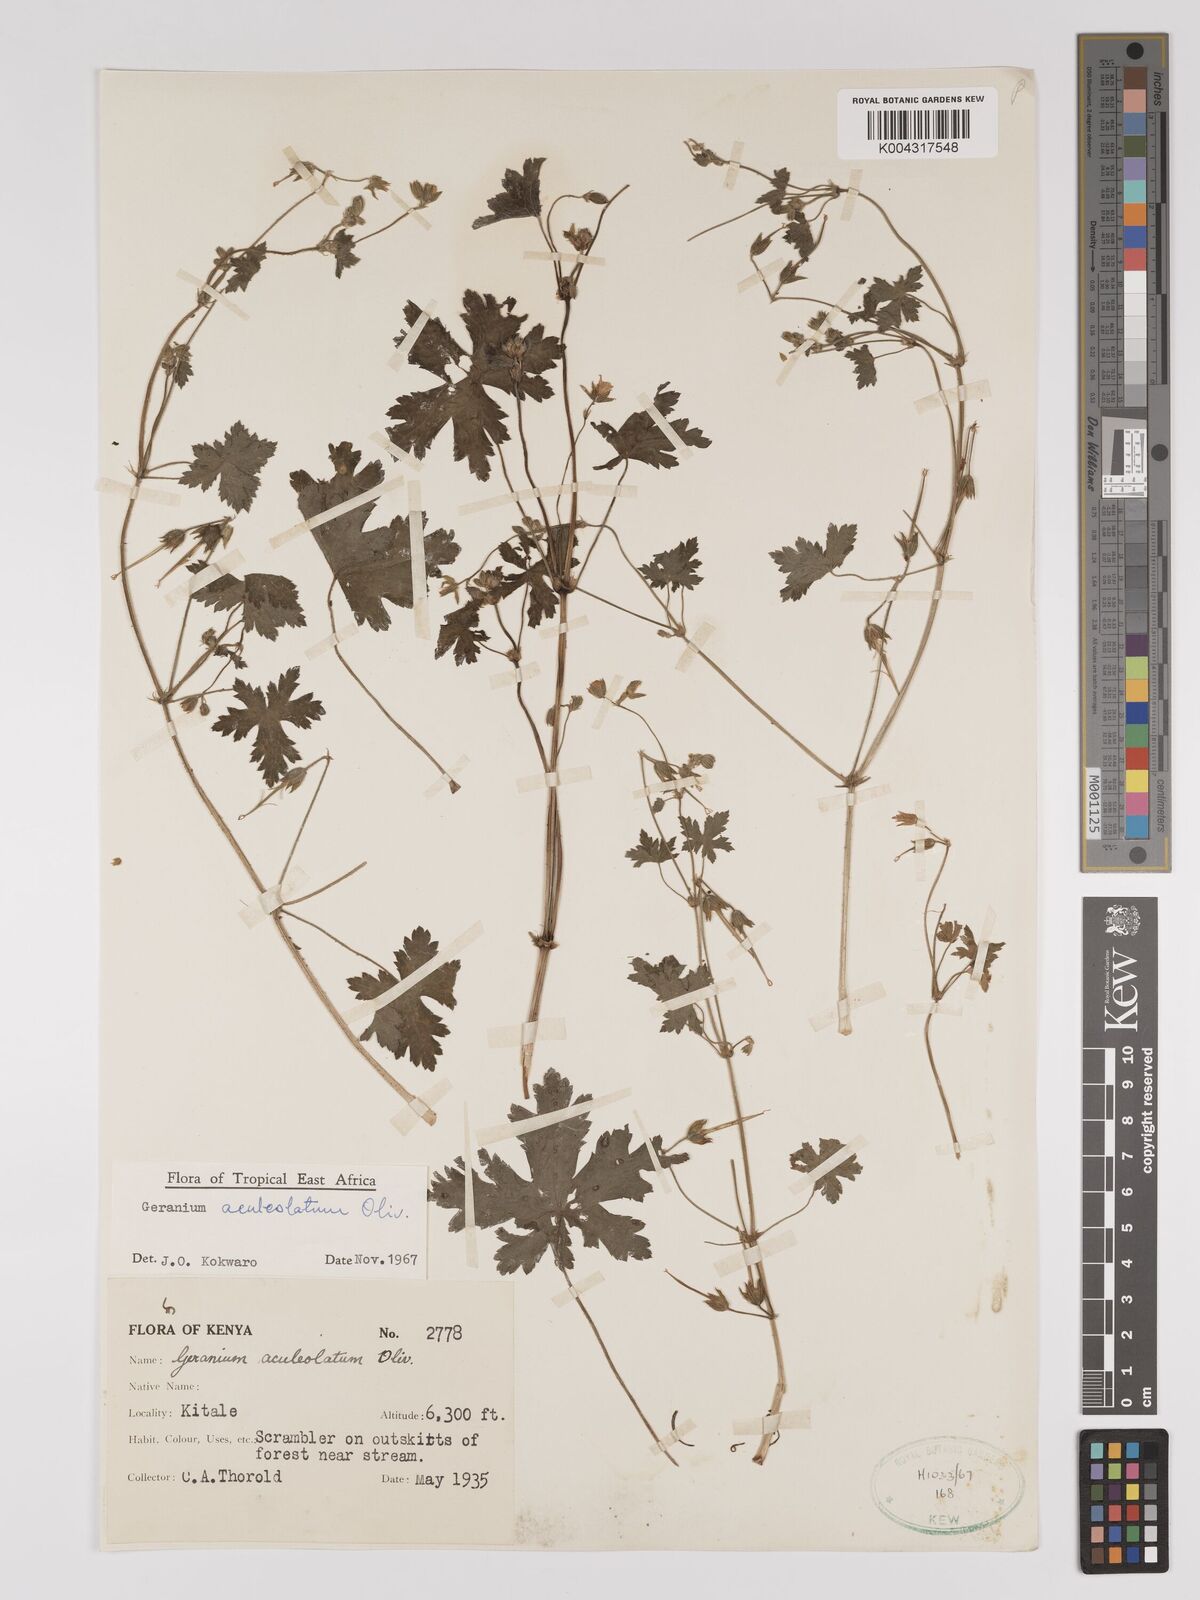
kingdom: Plantae
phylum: Tracheophyta
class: Magnoliopsida
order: Geraniales
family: Geraniaceae
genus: Geranium
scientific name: Geranium aculeolatum
